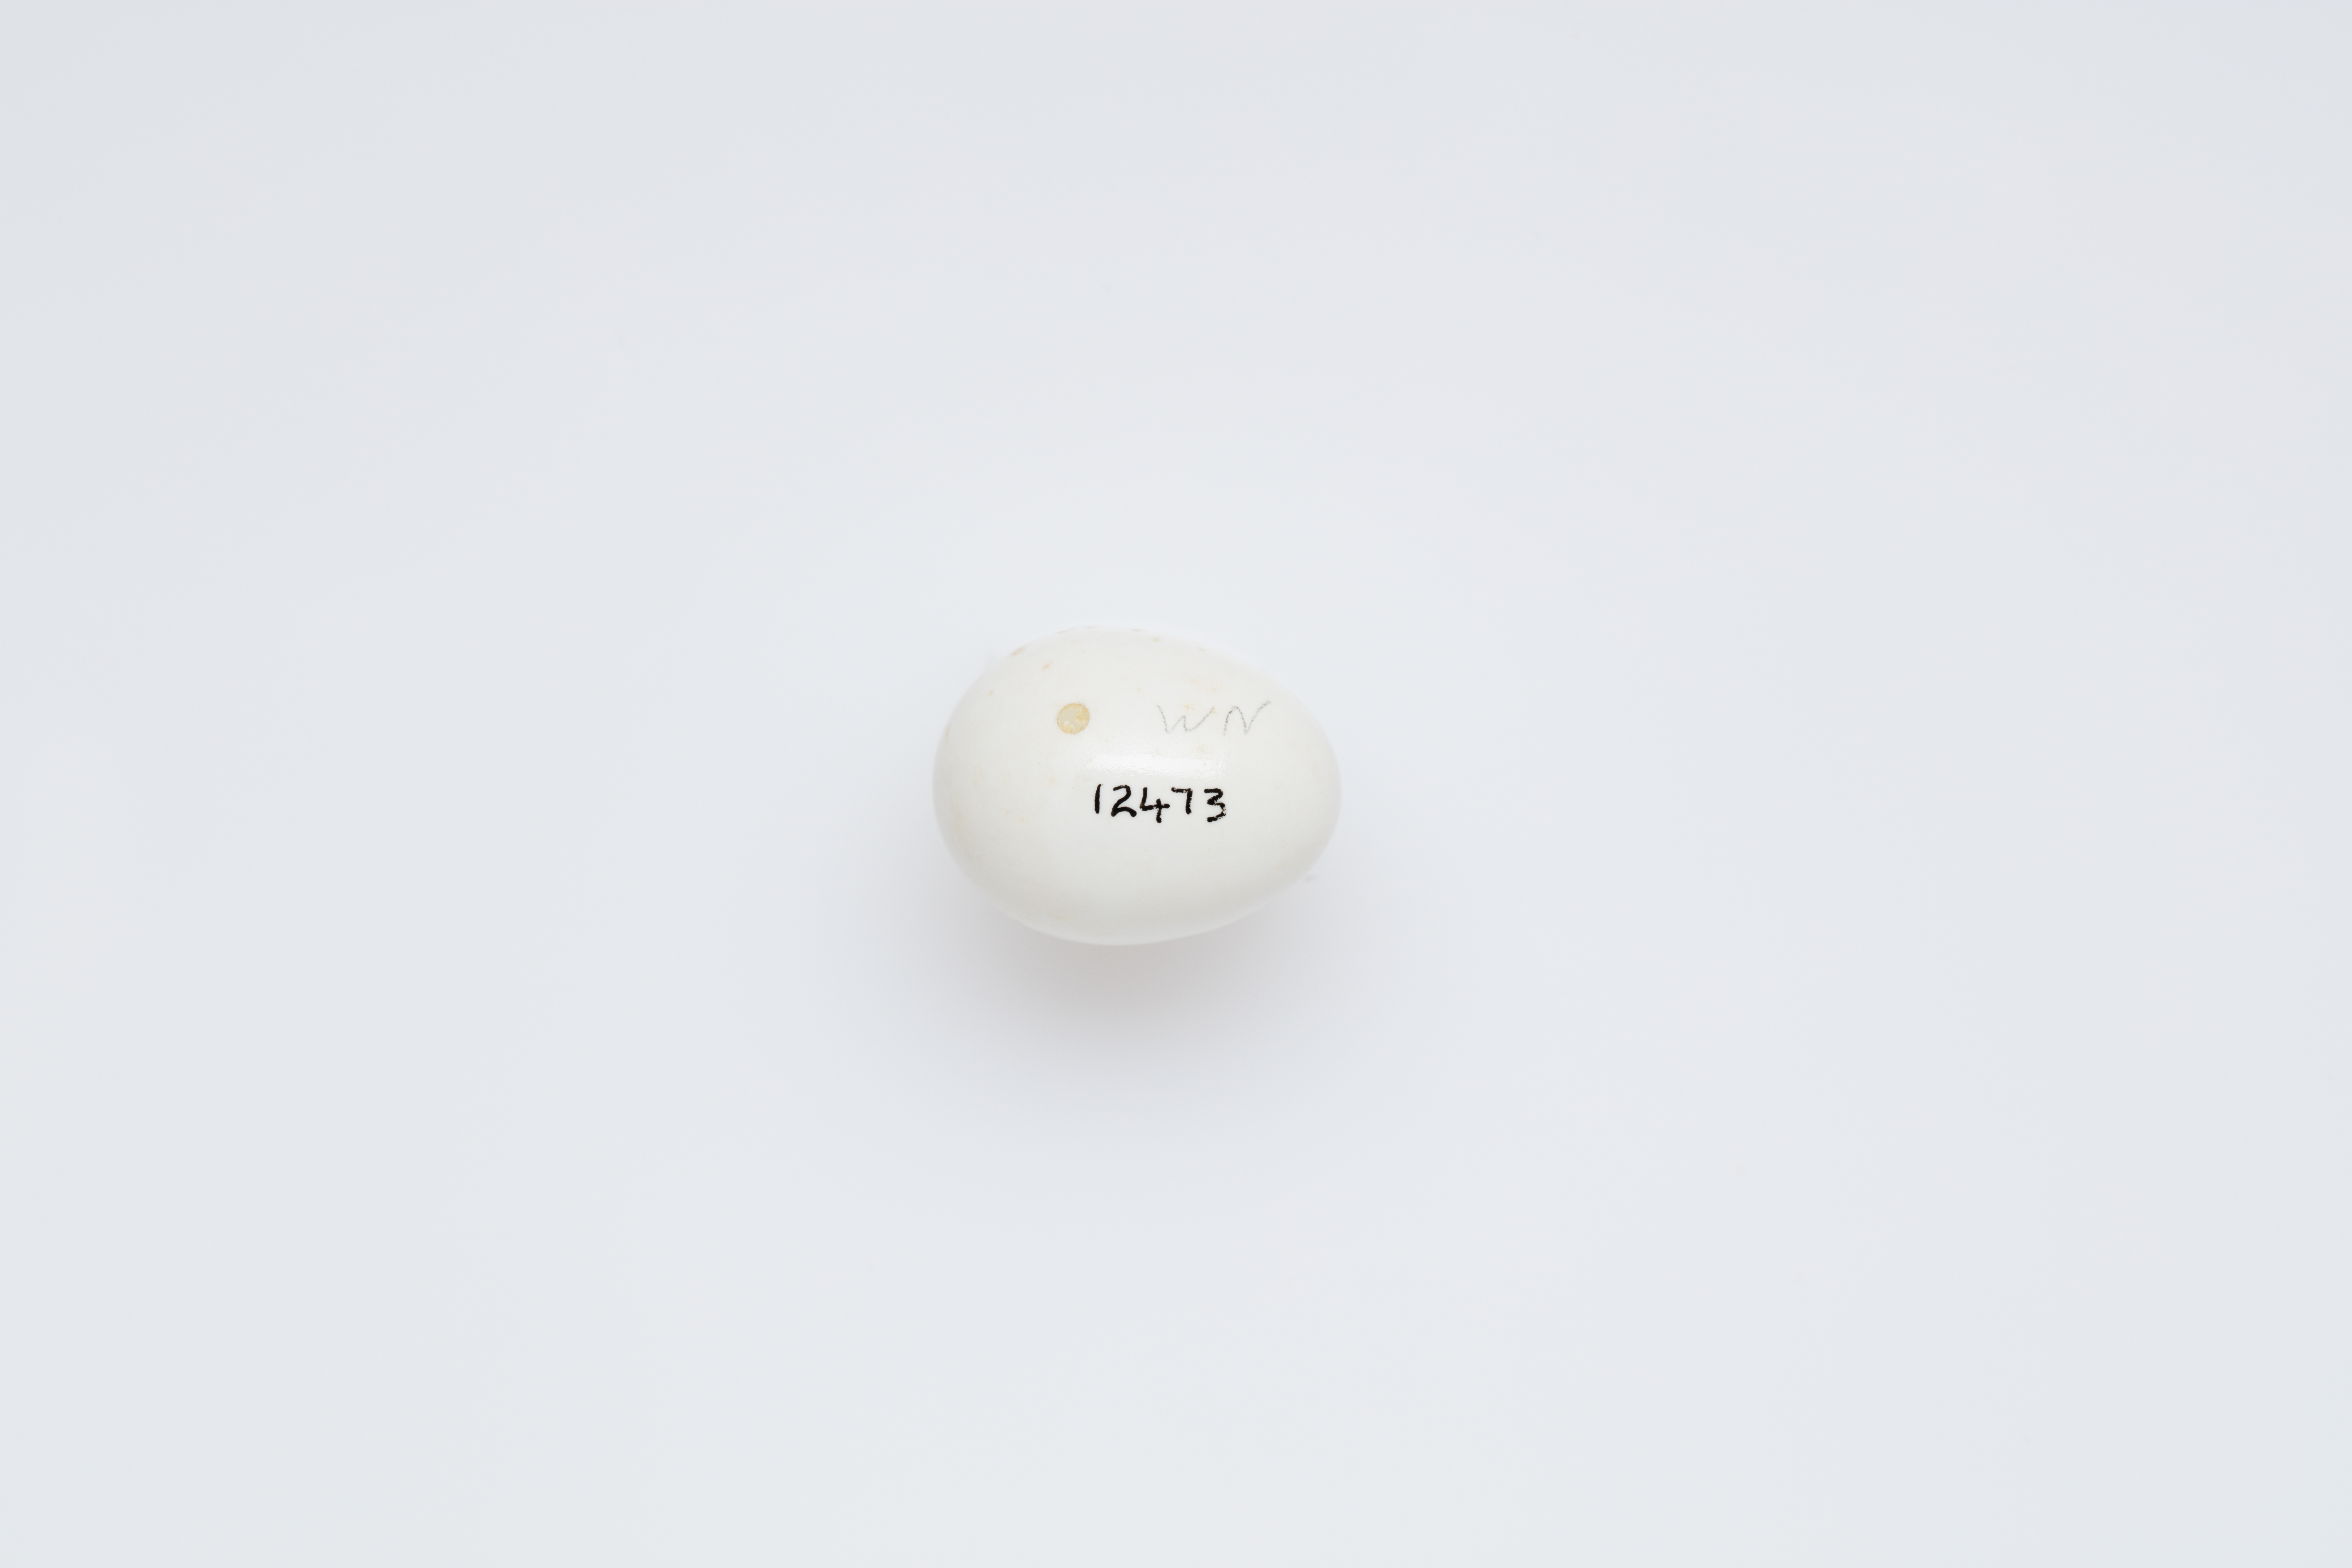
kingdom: Animalia
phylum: Chordata
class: Aves
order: Piciformes
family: Picidae
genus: Dryobates
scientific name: Dryobates minor
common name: Lesser spotted woodpecker
